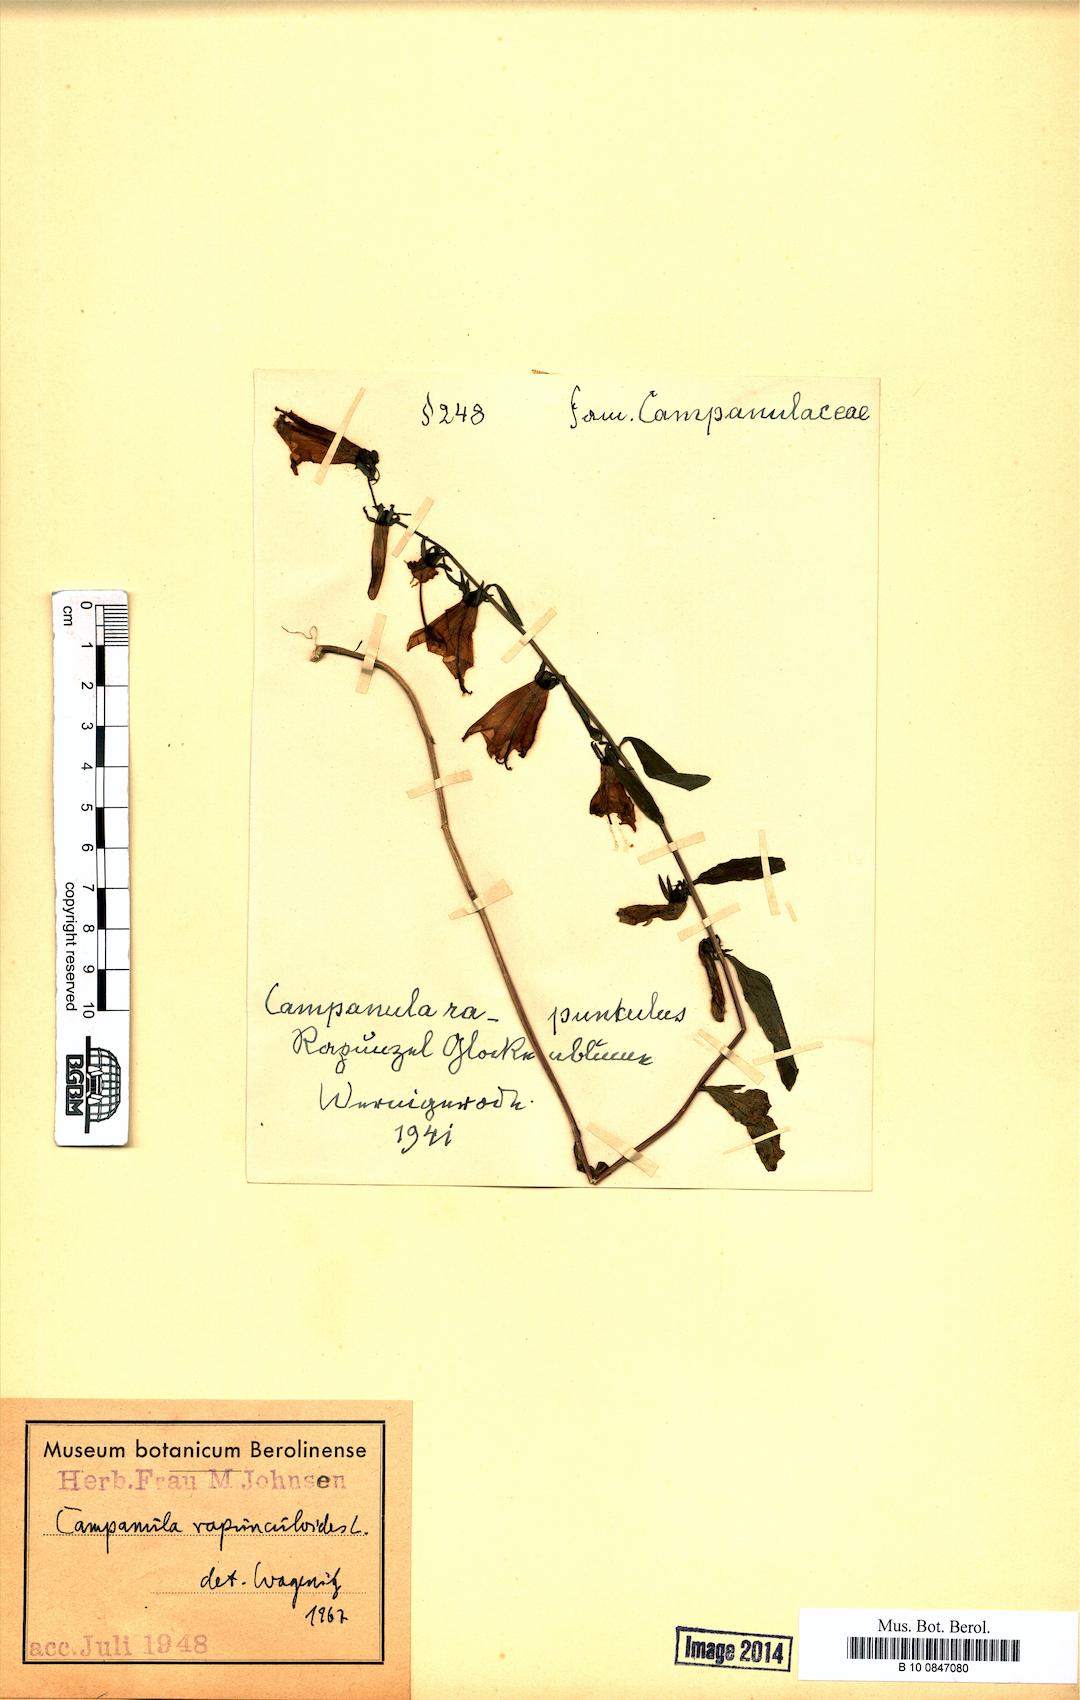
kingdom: Plantae
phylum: Tracheophyta
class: Magnoliopsida
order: Asterales
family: Campanulaceae
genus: Campanula
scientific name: Campanula rapunculoides
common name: Creeping bellflower
